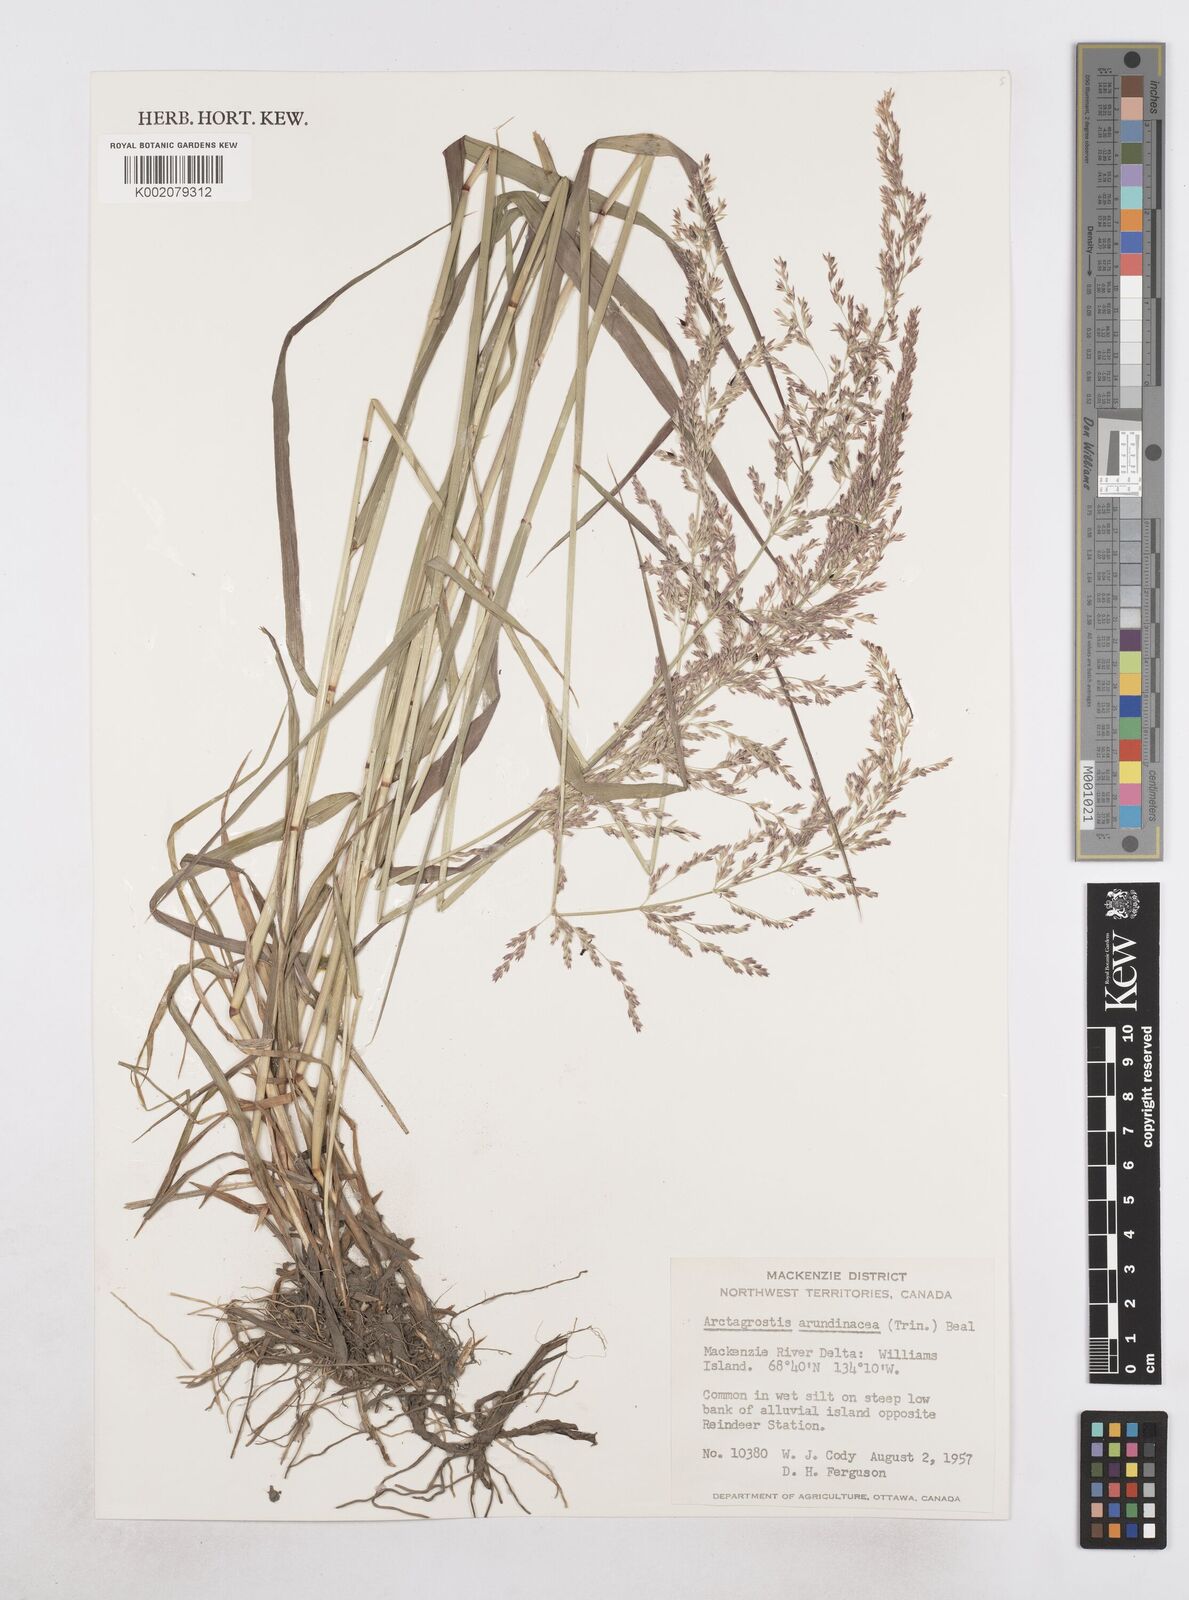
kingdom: Plantae
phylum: Tracheophyta
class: Liliopsida
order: Poales
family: Poaceae
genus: Arctagrostis
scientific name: Arctagrostis arundinacea
